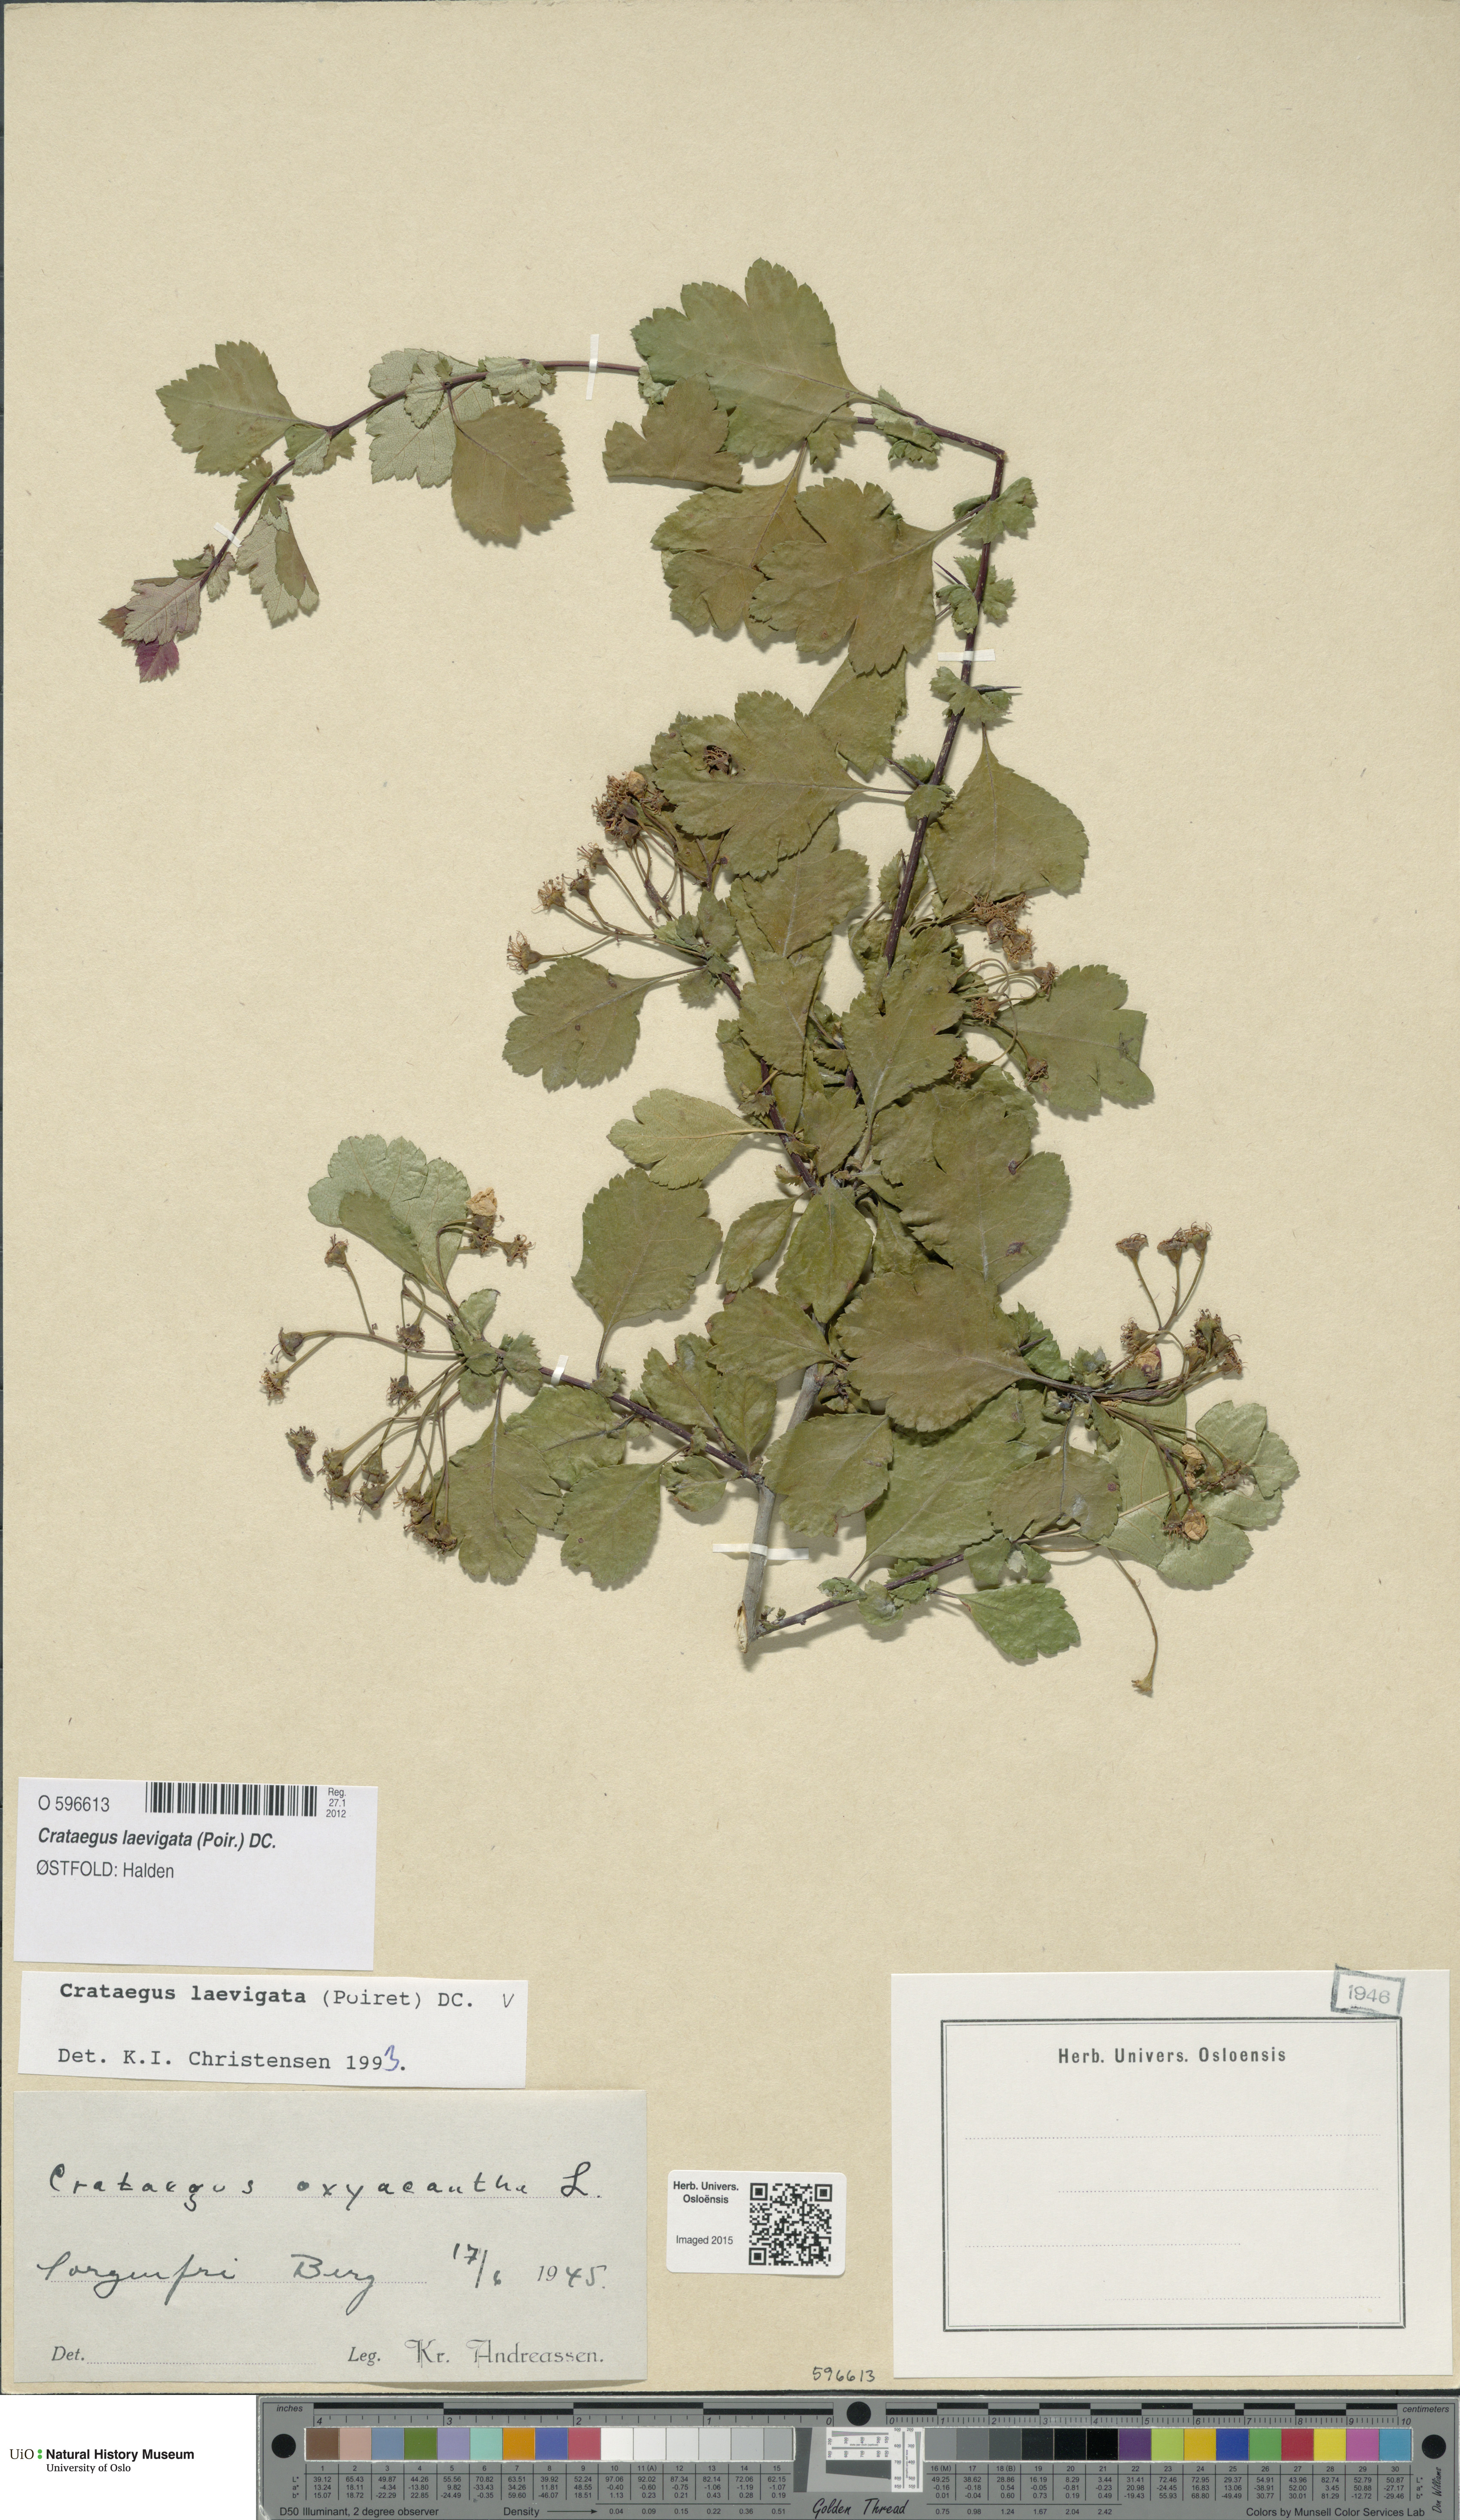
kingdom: Plantae
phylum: Tracheophyta
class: Magnoliopsida
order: Rosales
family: Rosaceae
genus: Crataegus
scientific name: Crataegus laevigata
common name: Midland hawthorn
